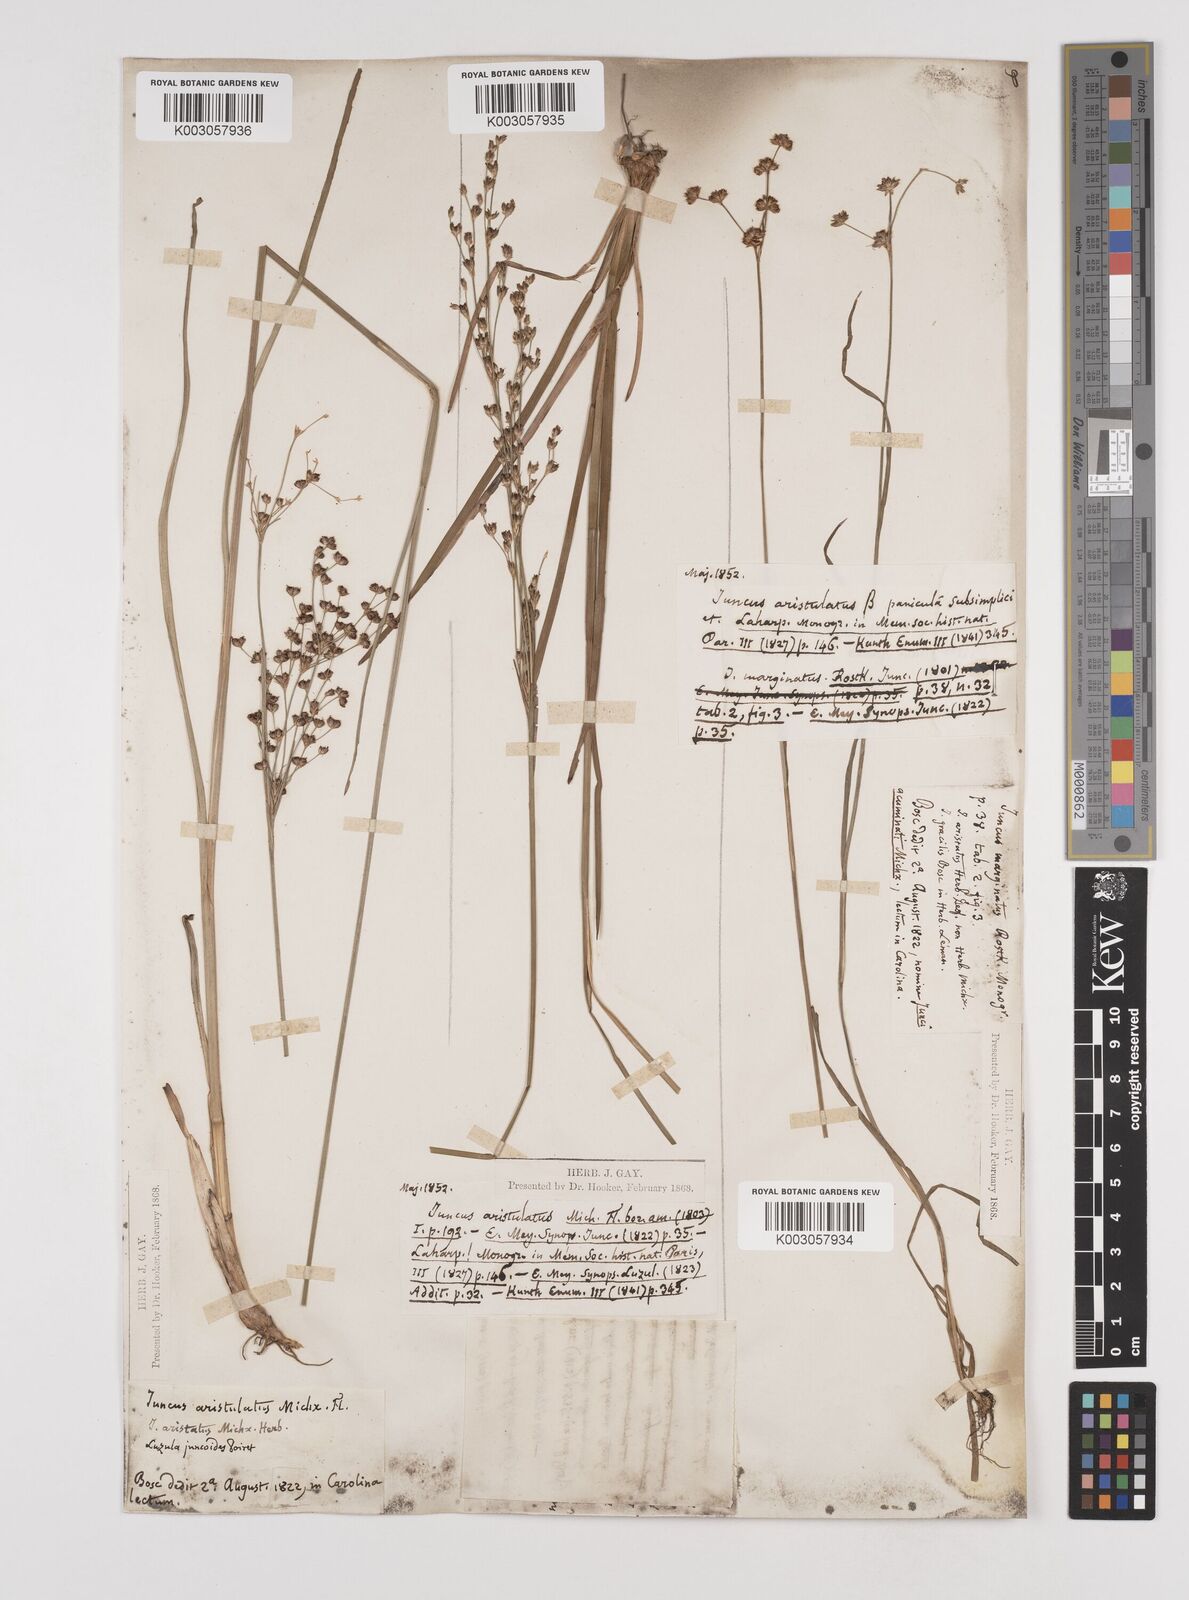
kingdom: Plantae
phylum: Tracheophyta
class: Liliopsida
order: Poales
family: Juncaceae
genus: Juncus
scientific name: Juncus marginatus
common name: Grass-leaf rush
